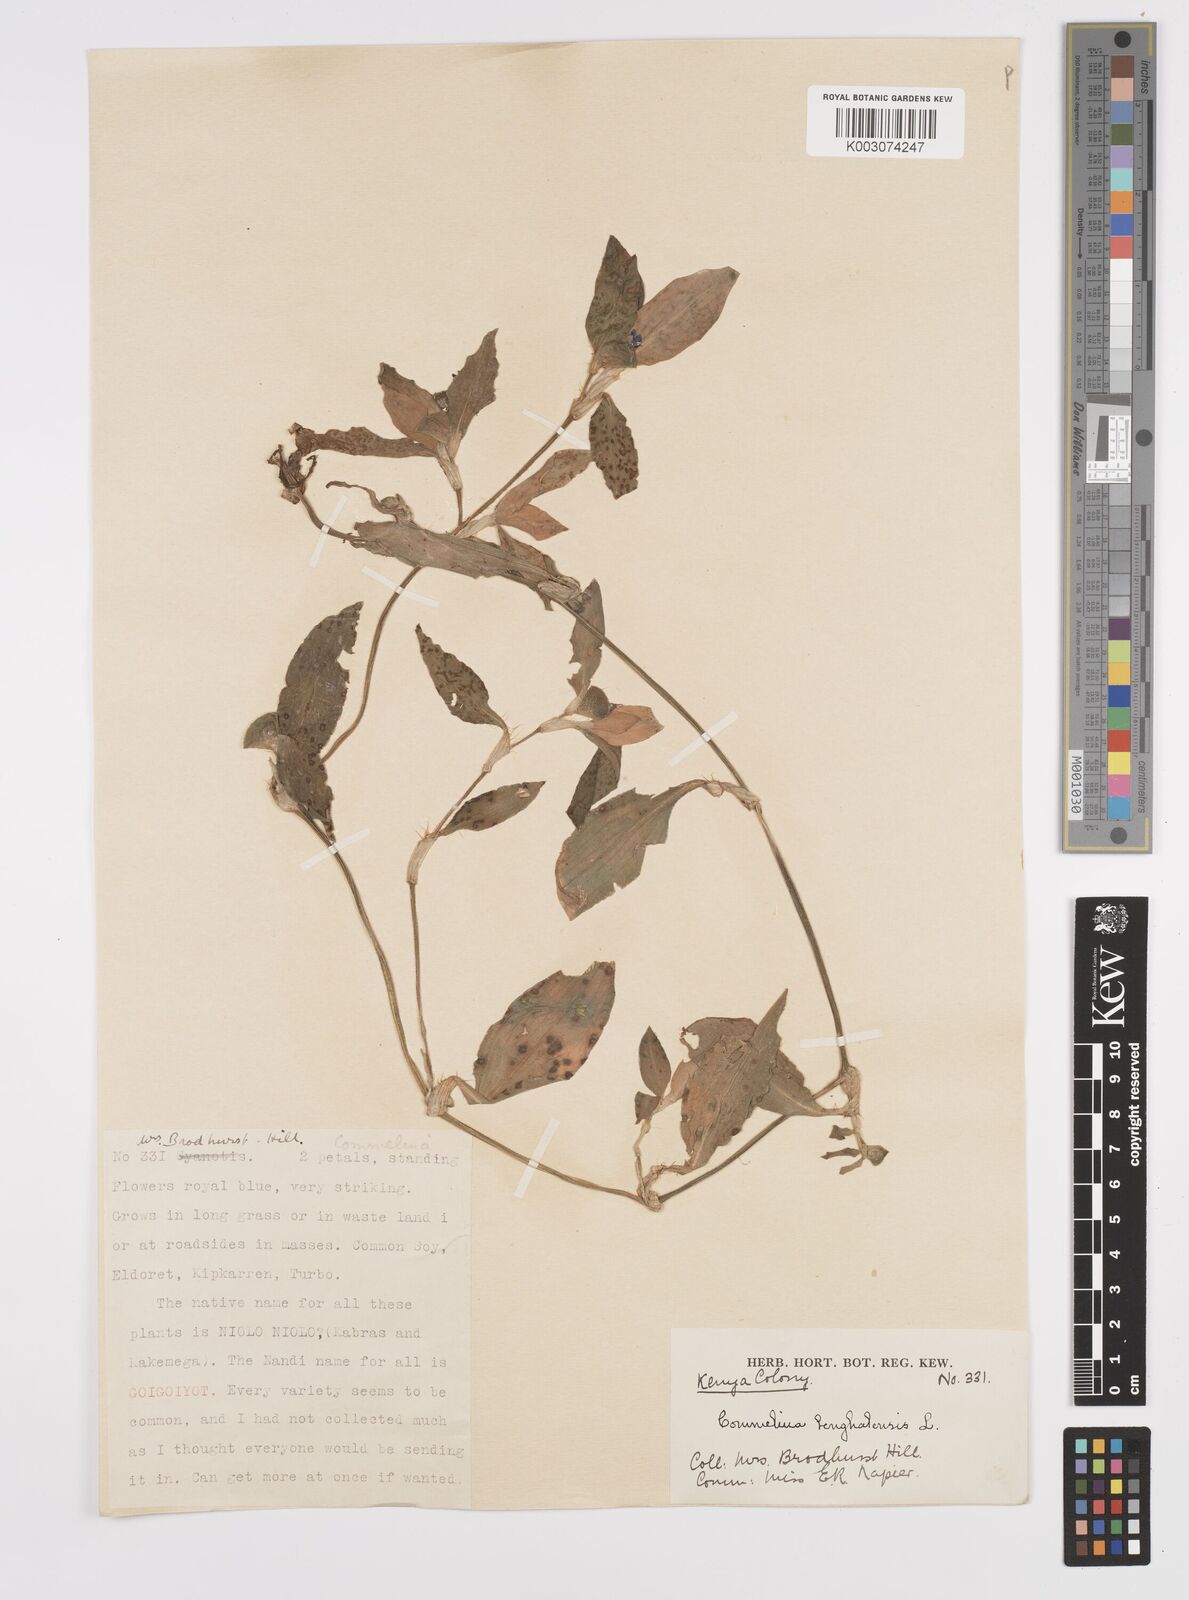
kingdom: Plantae
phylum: Tracheophyta
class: Liliopsida
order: Commelinales
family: Commelinaceae
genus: Commelina
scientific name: Commelina benghalensis
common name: Jio
